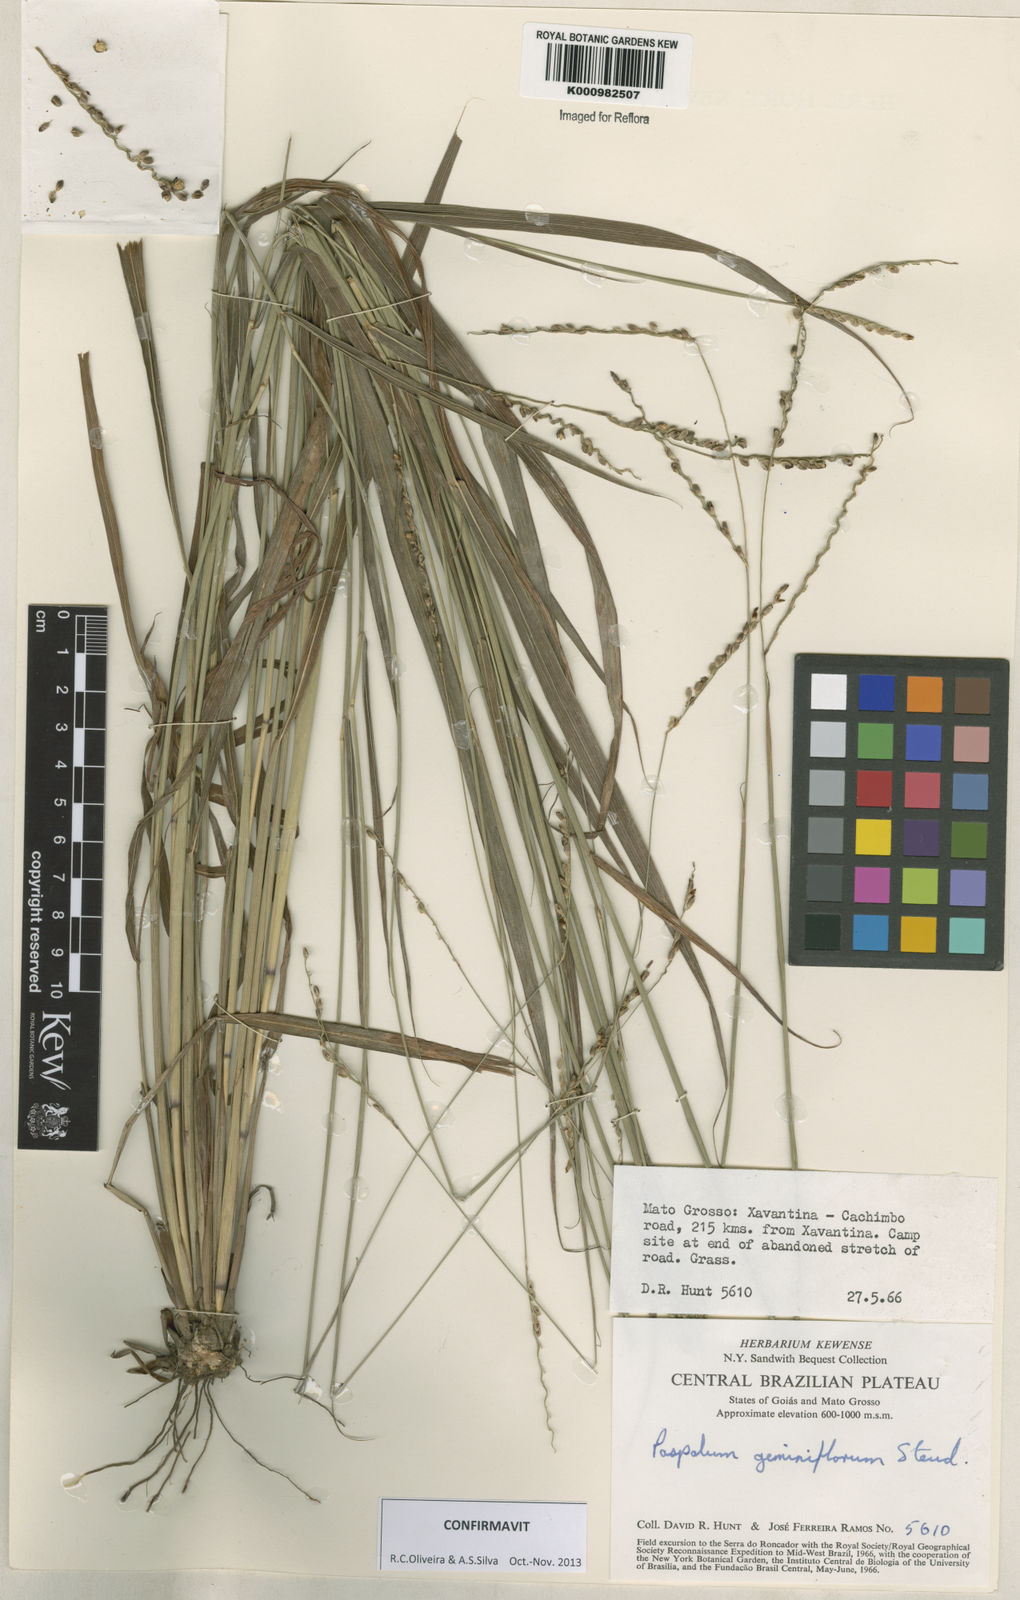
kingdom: Plantae
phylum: Tracheophyta
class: Liliopsida
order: Poales
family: Poaceae
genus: Paspalum
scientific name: Paspalum geminiflorum
